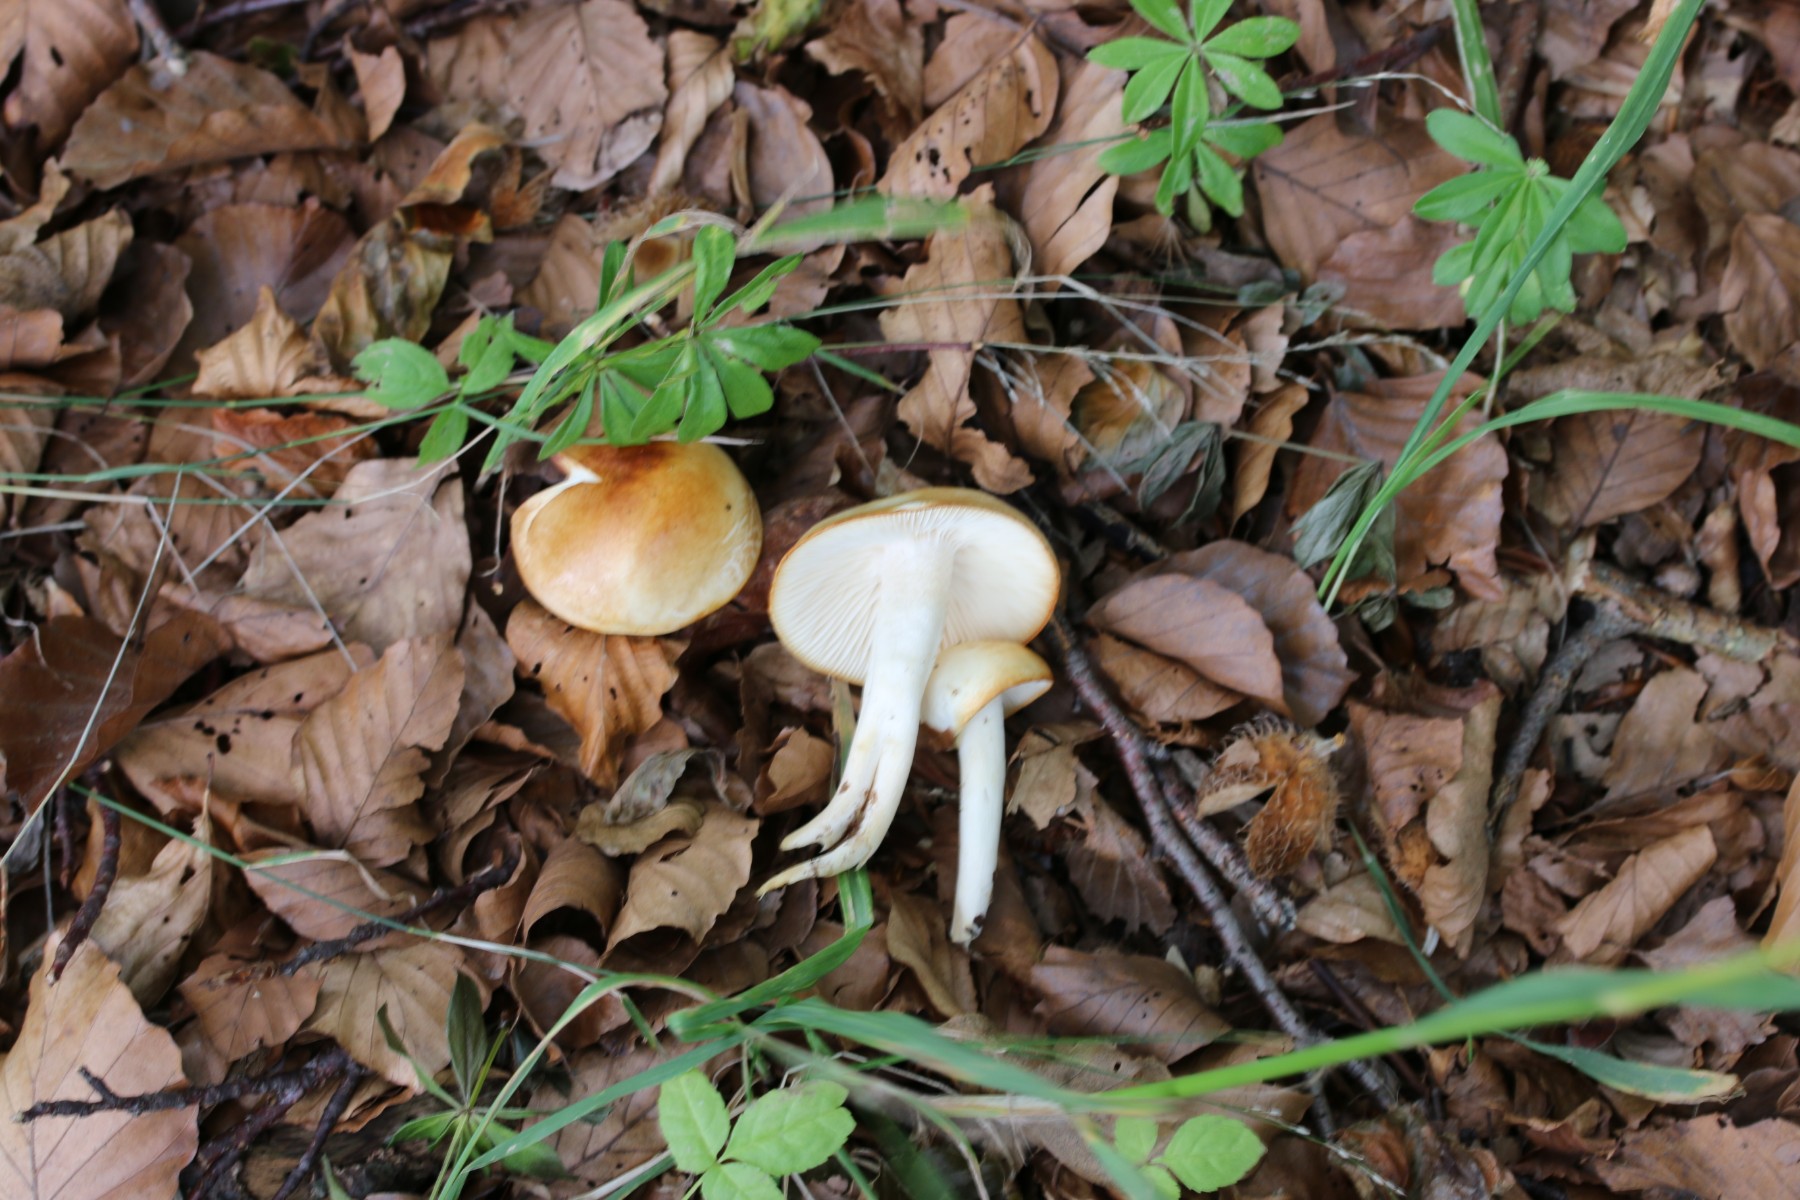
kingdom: Fungi
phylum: Basidiomycota
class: Agaricomycetes
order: Agaricales
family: Hygrophoraceae
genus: Hygrophorus
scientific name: Hygrophorus discoxanthus
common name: ildelugtende sneglehat
